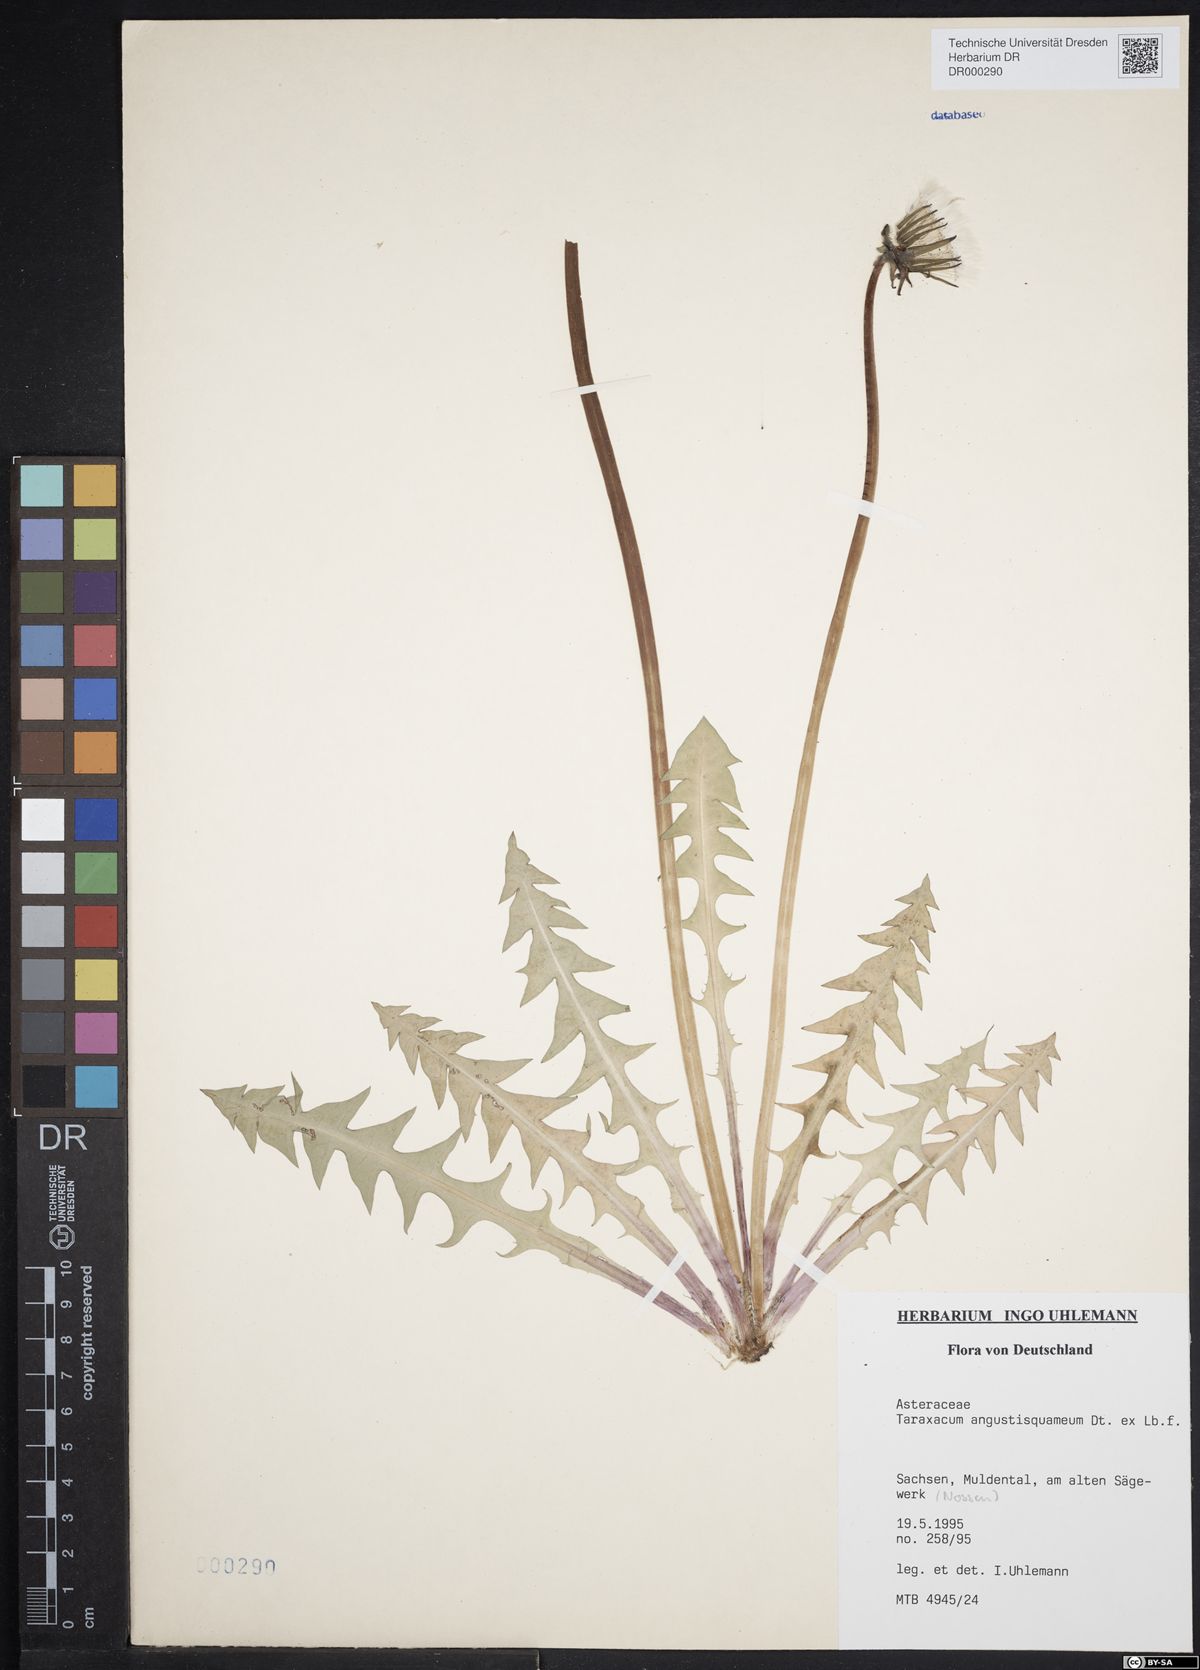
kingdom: Plantae
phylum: Tracheophyta
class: Magnoliopsida
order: Asterales
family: Asteraceae
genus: Taraxacum
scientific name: Taraxacum angustisquameum
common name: Multilobed dandelion
